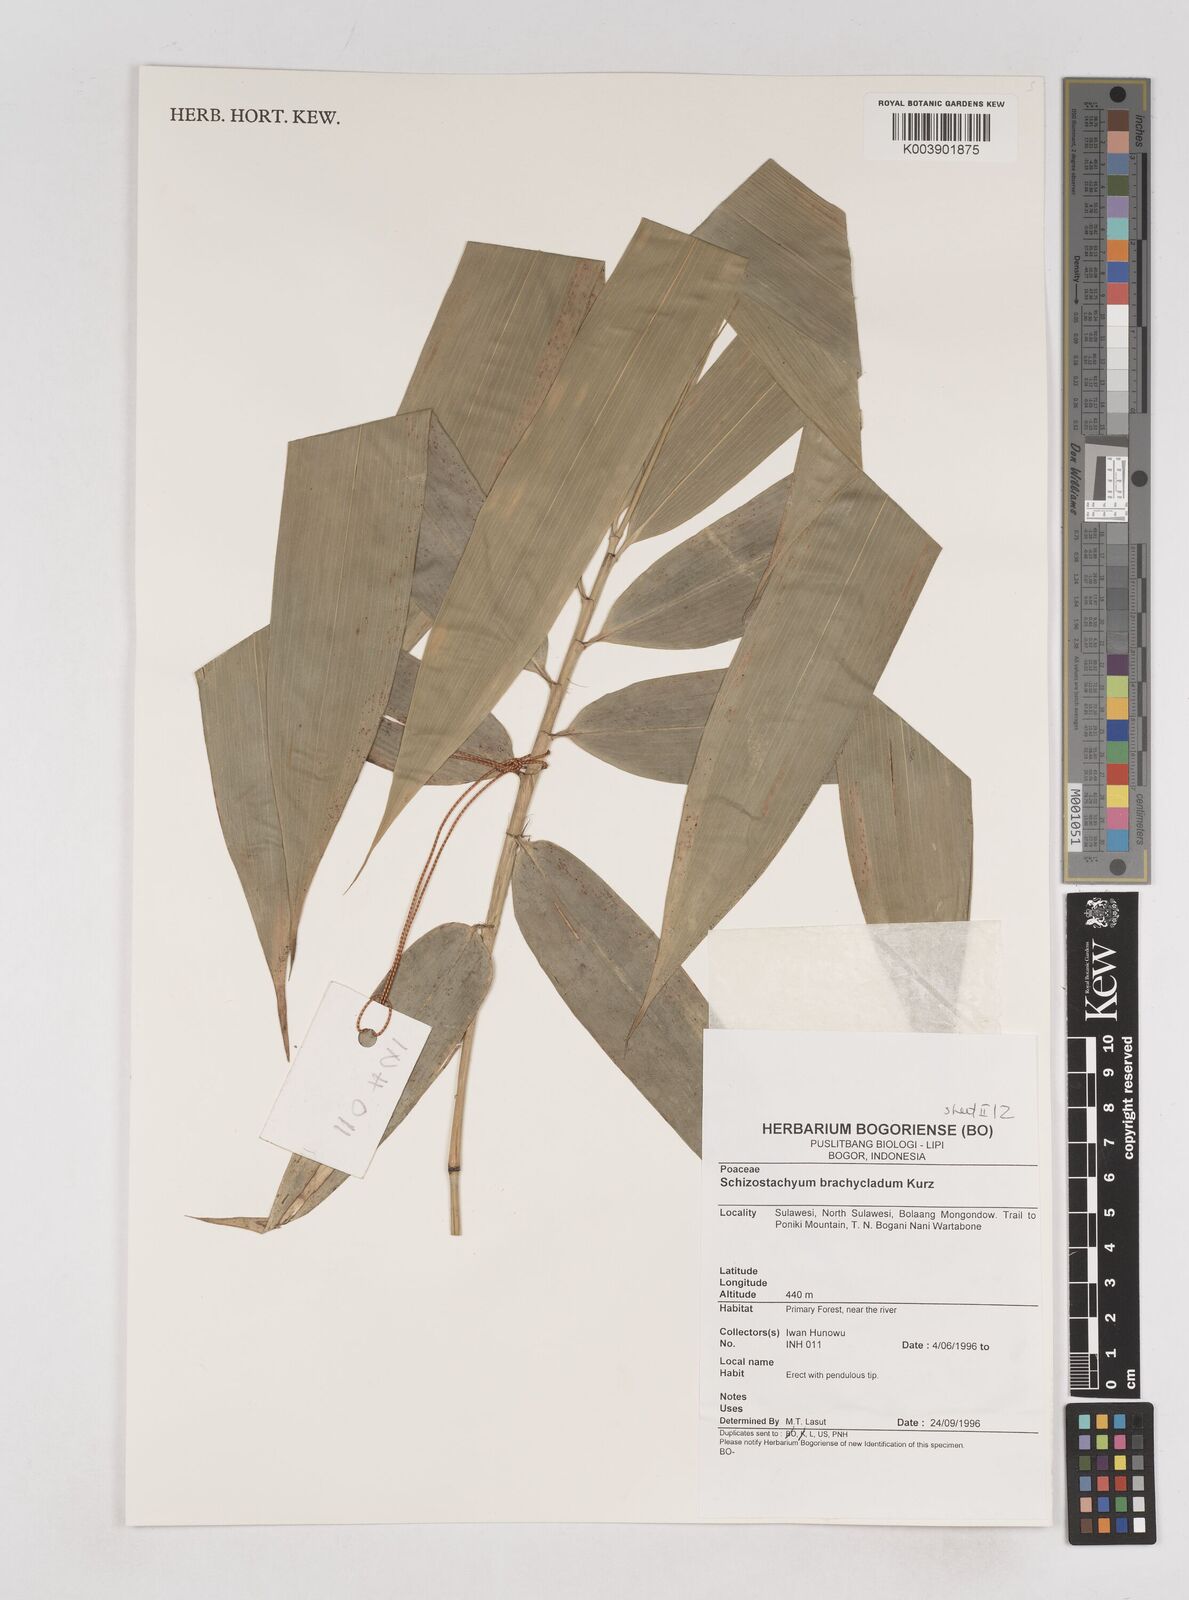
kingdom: Plantae
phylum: Tracheophyta
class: Liliopsida
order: Poales
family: Poaceae
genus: Schizostachyum
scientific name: Schizostachyum brachycladum
